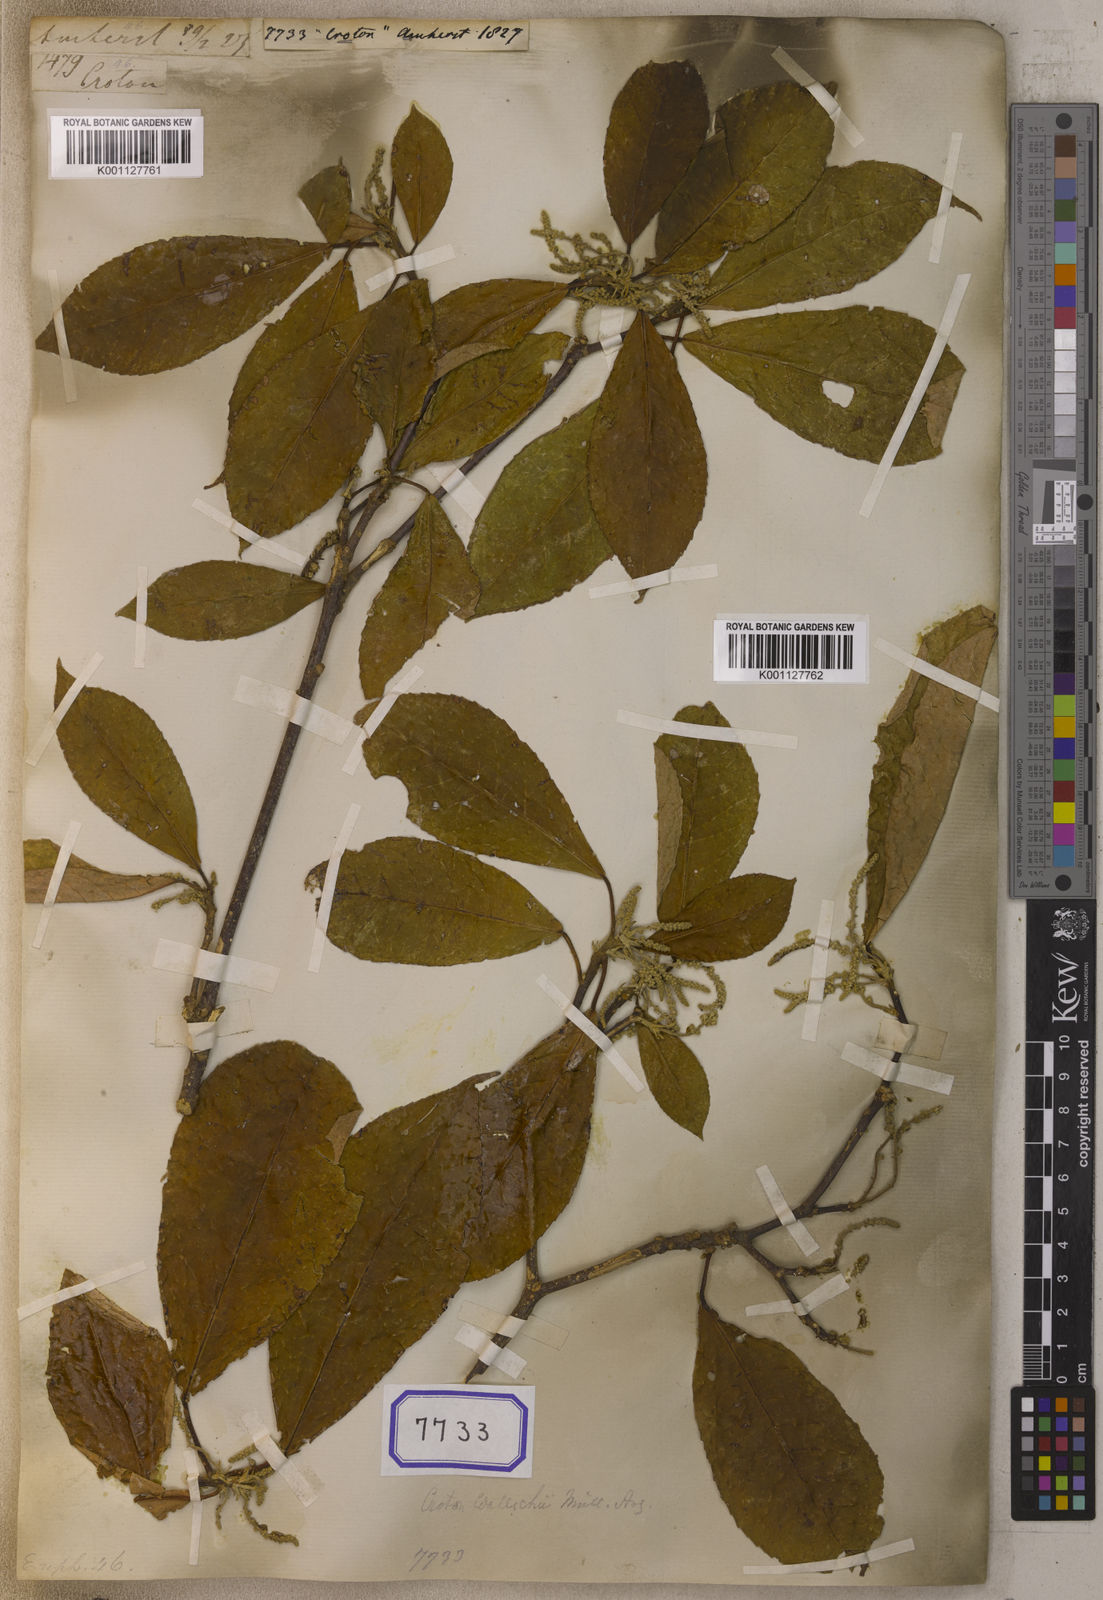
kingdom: Plantae
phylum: Tracheophyta
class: Magnoliopsida
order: Malpighiales
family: Euphorbiaceae
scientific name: Euphorbiaceae
